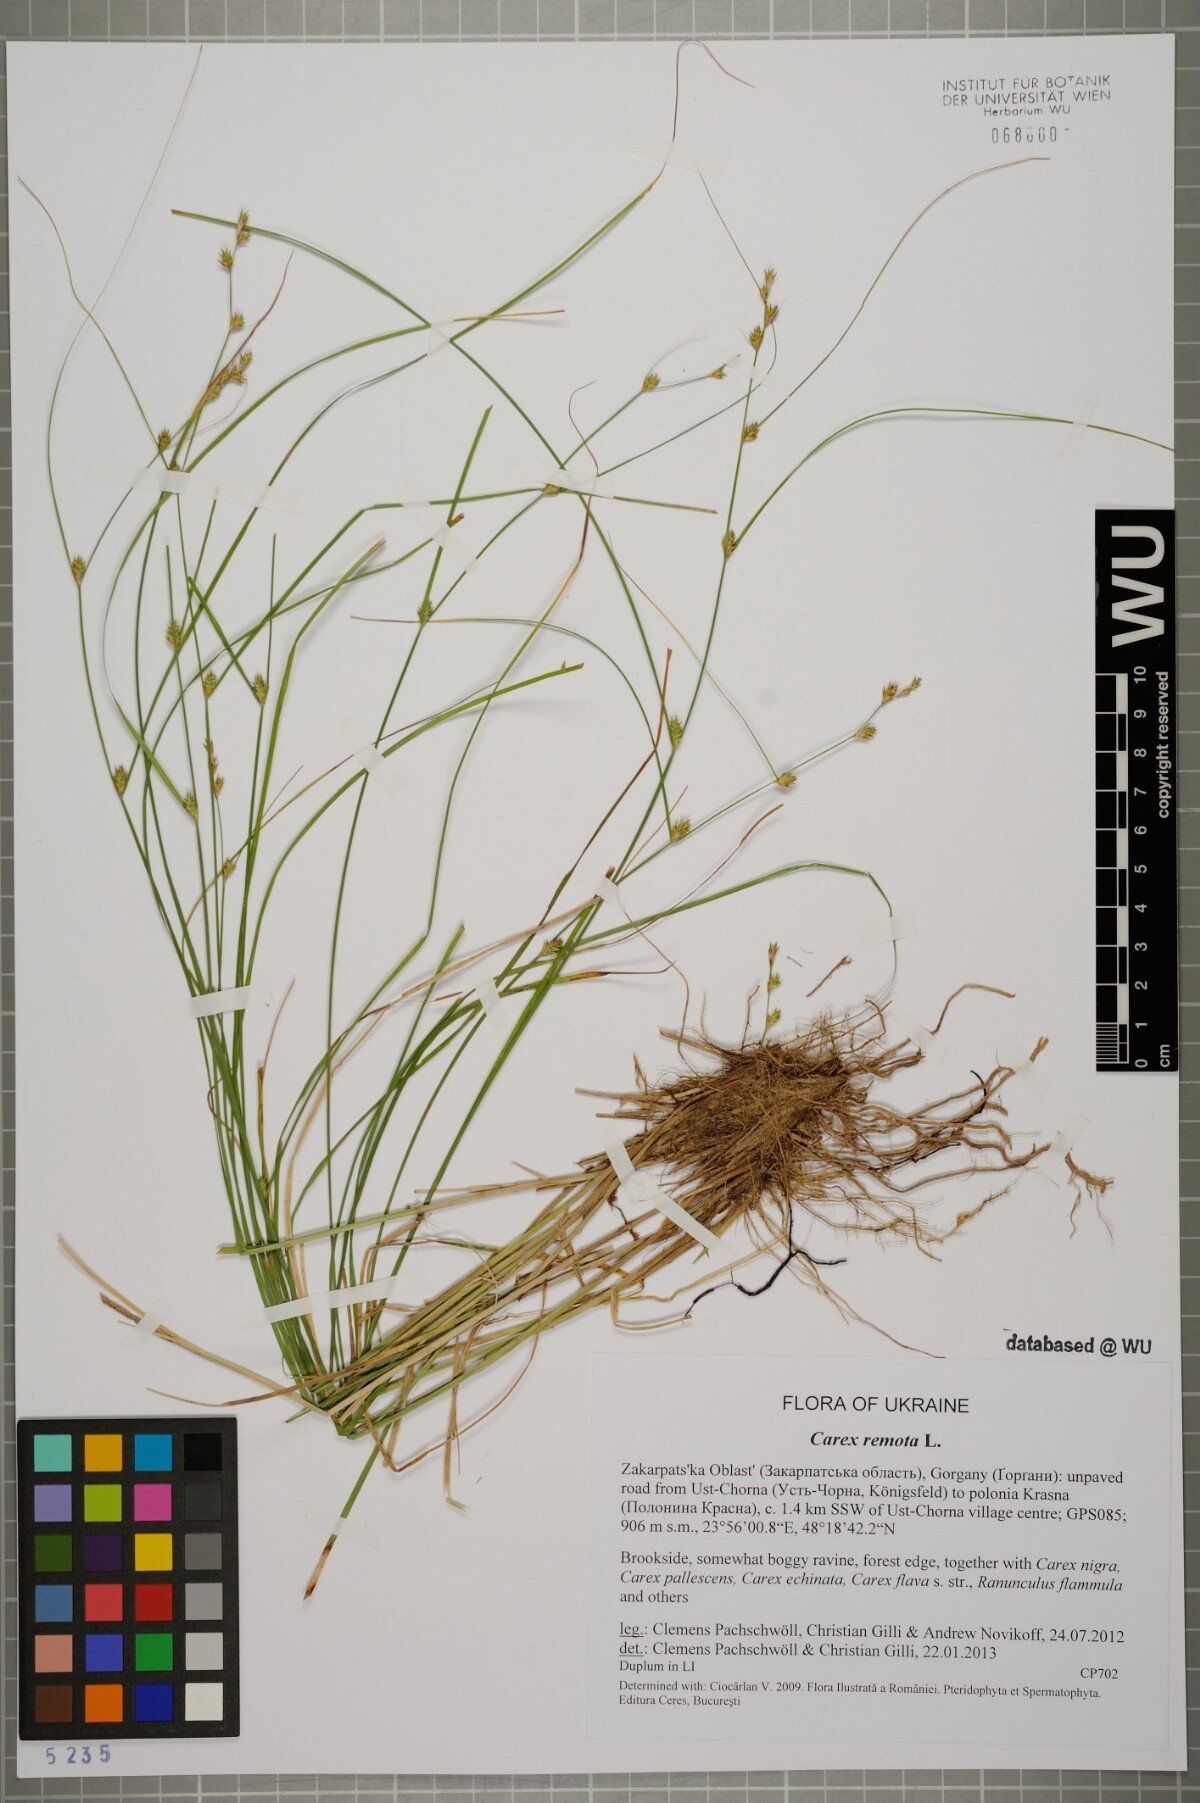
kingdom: Plantae
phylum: Tracheophyta
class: Liliopsida
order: Poales
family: Cyperaceae
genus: Carex
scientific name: Carex remota
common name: Remote sedge
